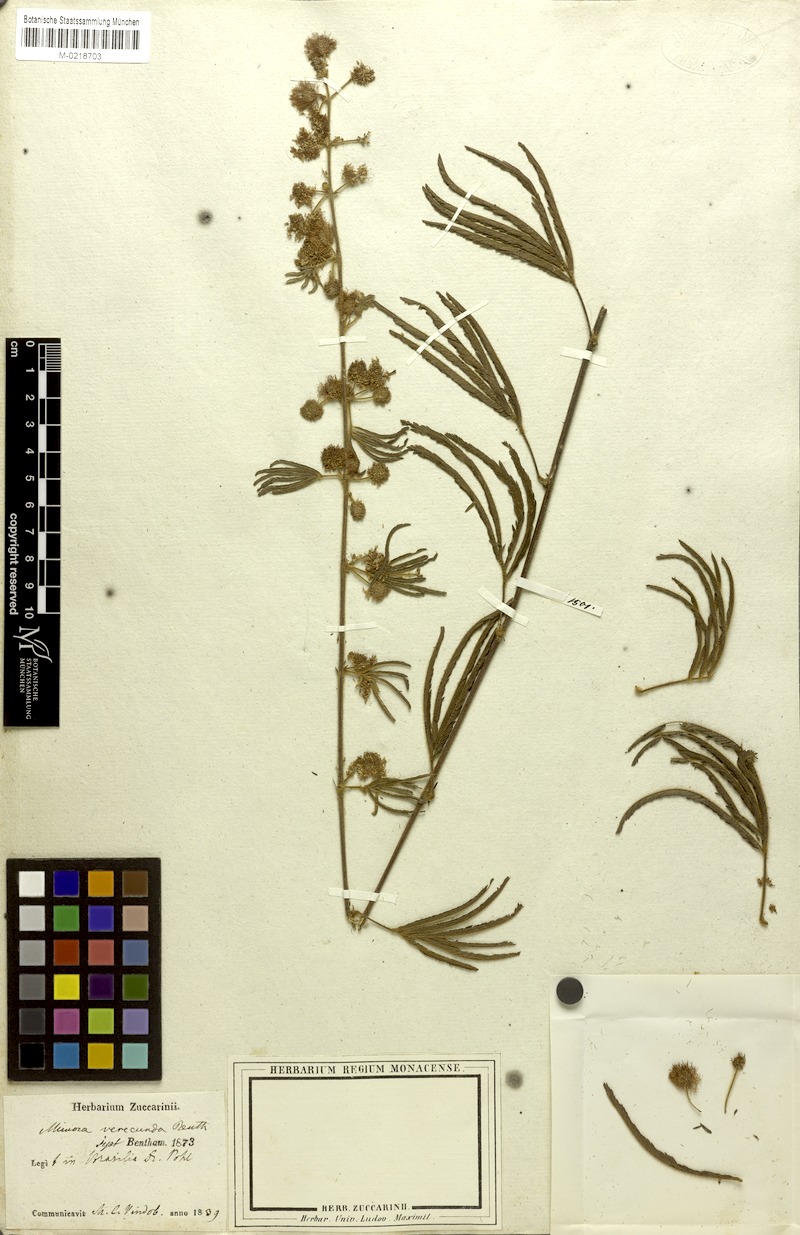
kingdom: Plantae
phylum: Tracheophyta
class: Magnoliopsida
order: Fabales
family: Fabaceae
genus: Mimosa
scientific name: Mimosa verecunda
